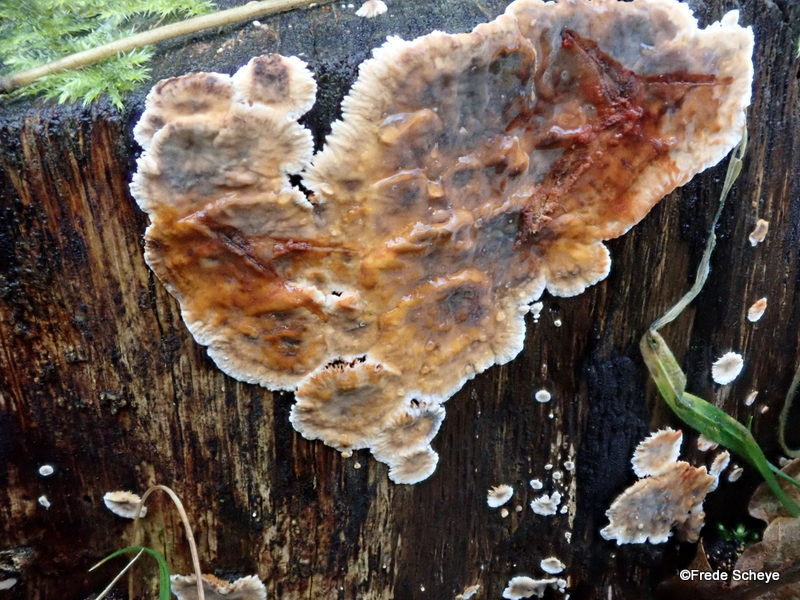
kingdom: Fungi
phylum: Basidiomycota
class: Agaricomycetes
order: Russulales
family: Stereaceae
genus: Stereum
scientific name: Stereum rugosum
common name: rynket lædersvamp
